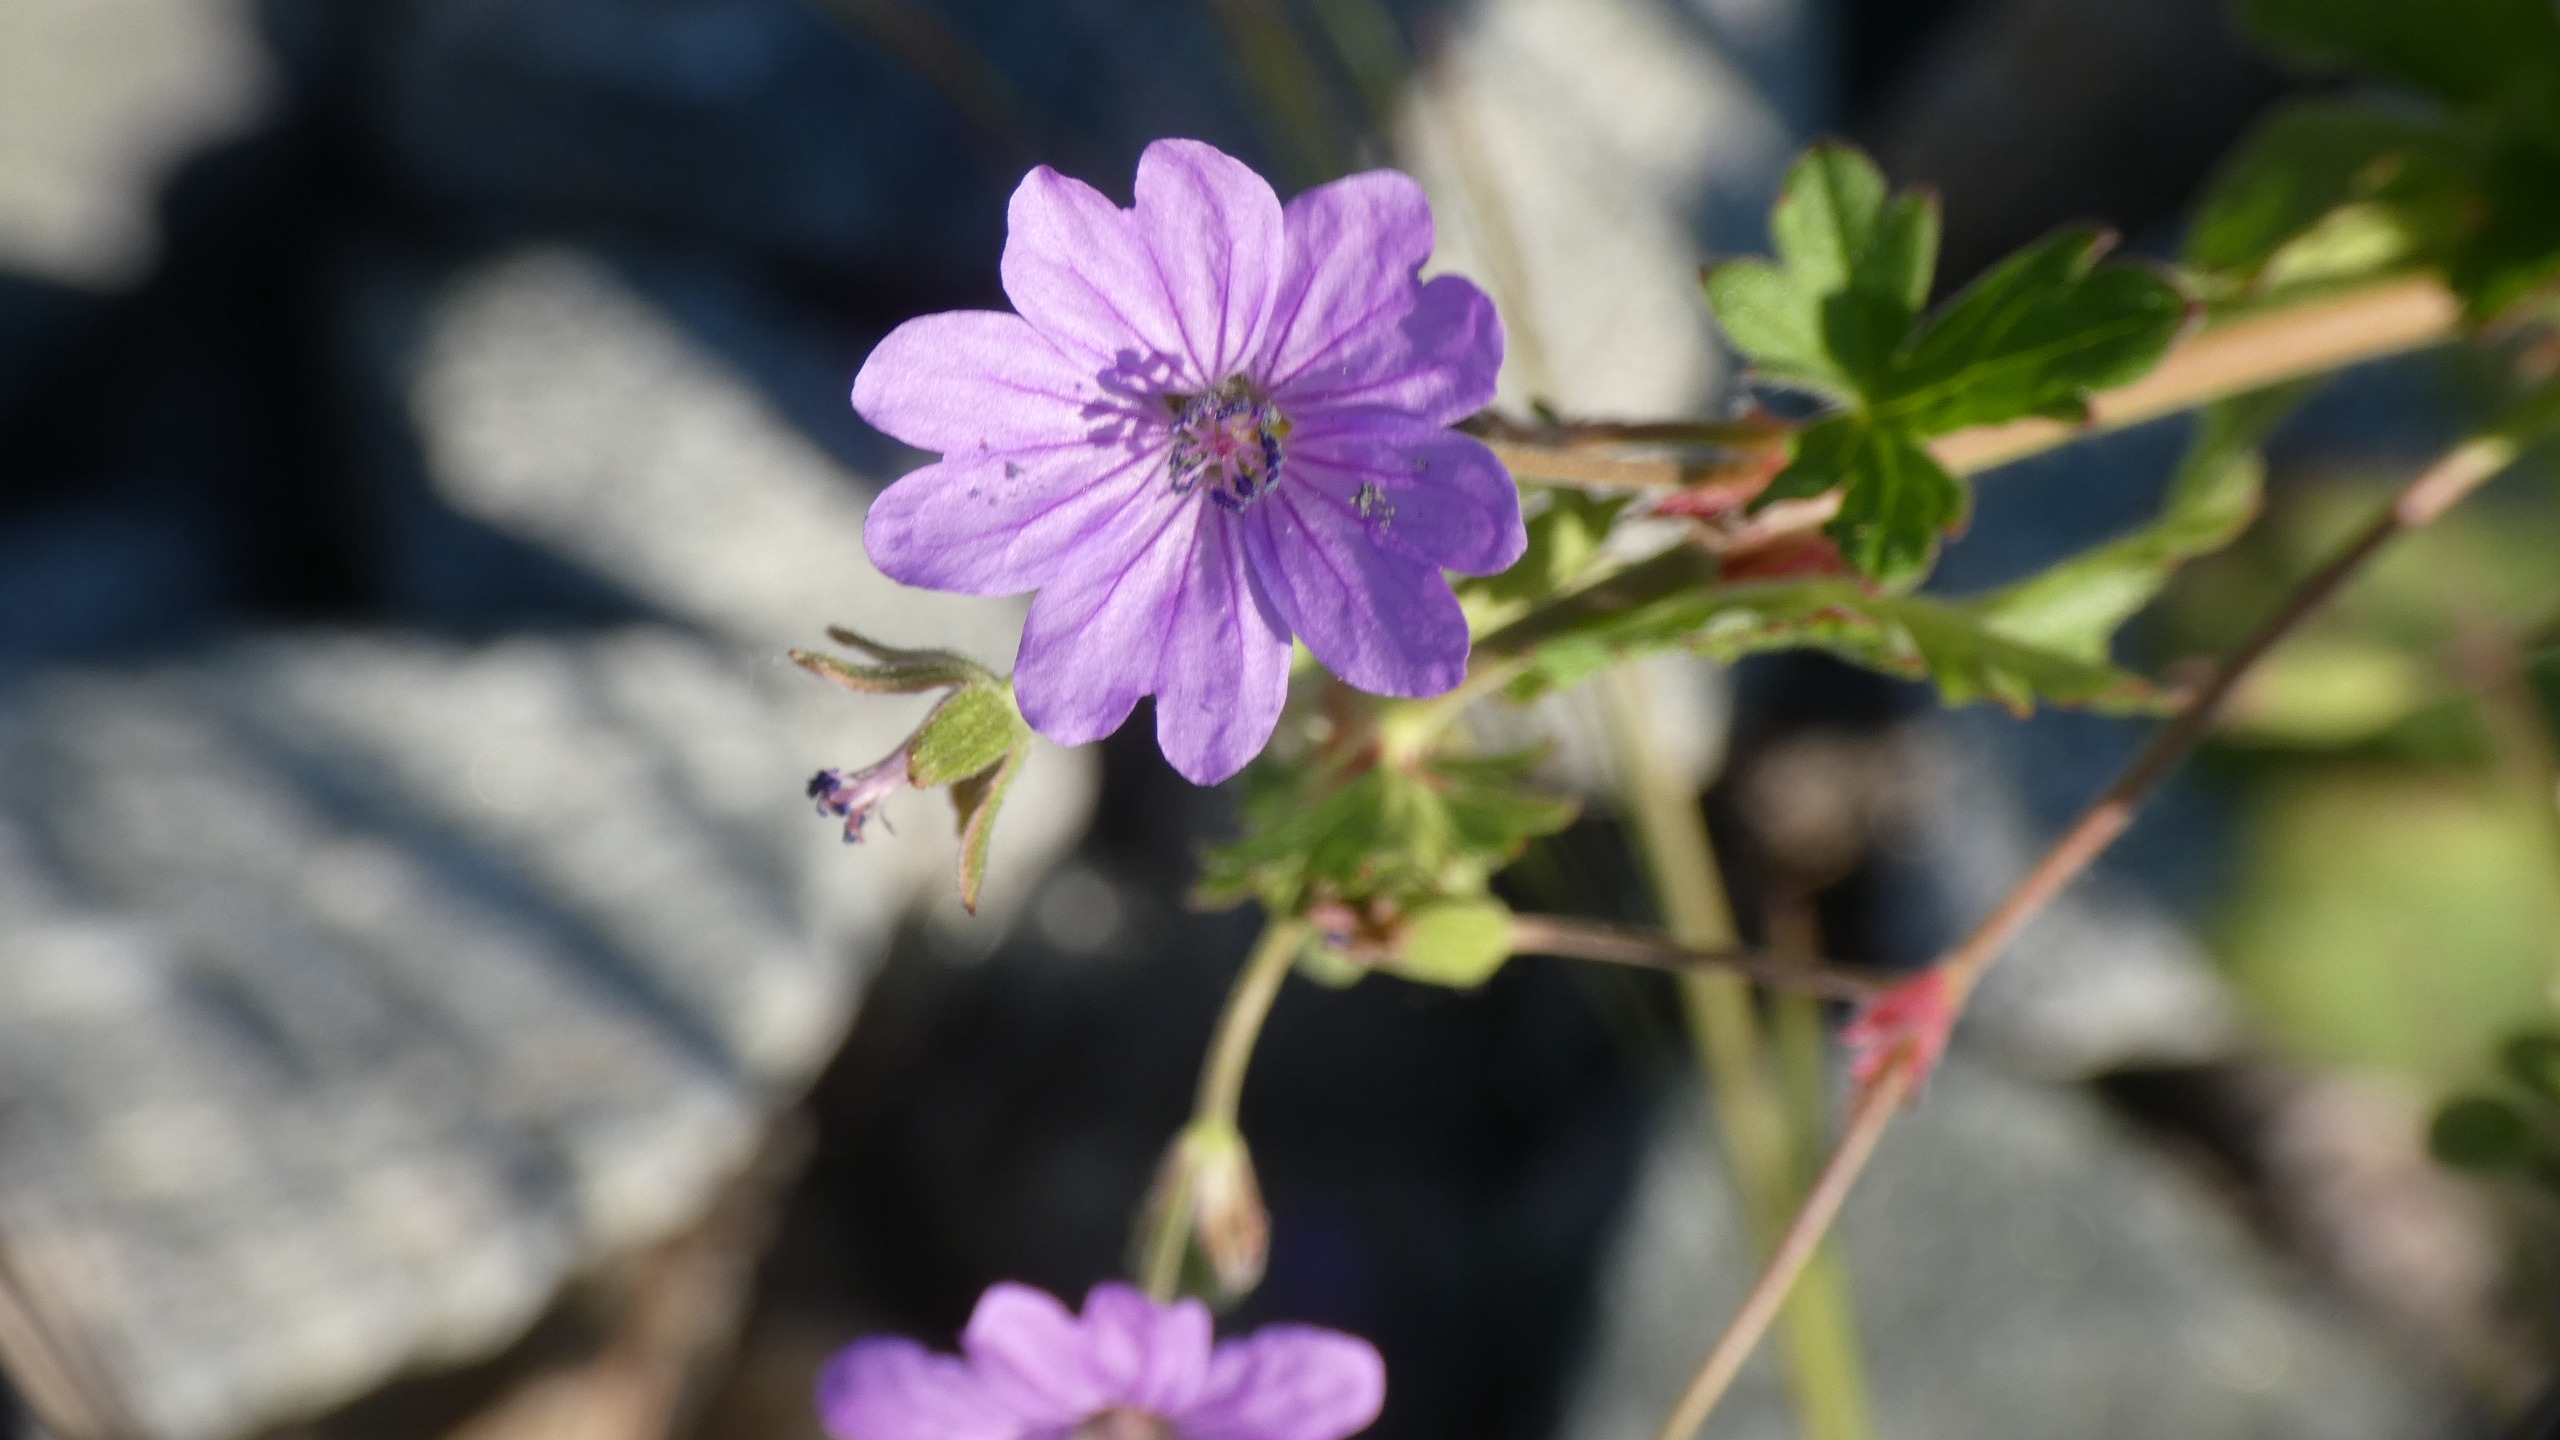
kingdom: Plantae
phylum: Tracheophyta
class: Magnoliopsida
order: Geraniales
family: Geraniaceae
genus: Geranium
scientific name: Geranium pyrenaicum
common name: Pyrenæisk storkenæb
